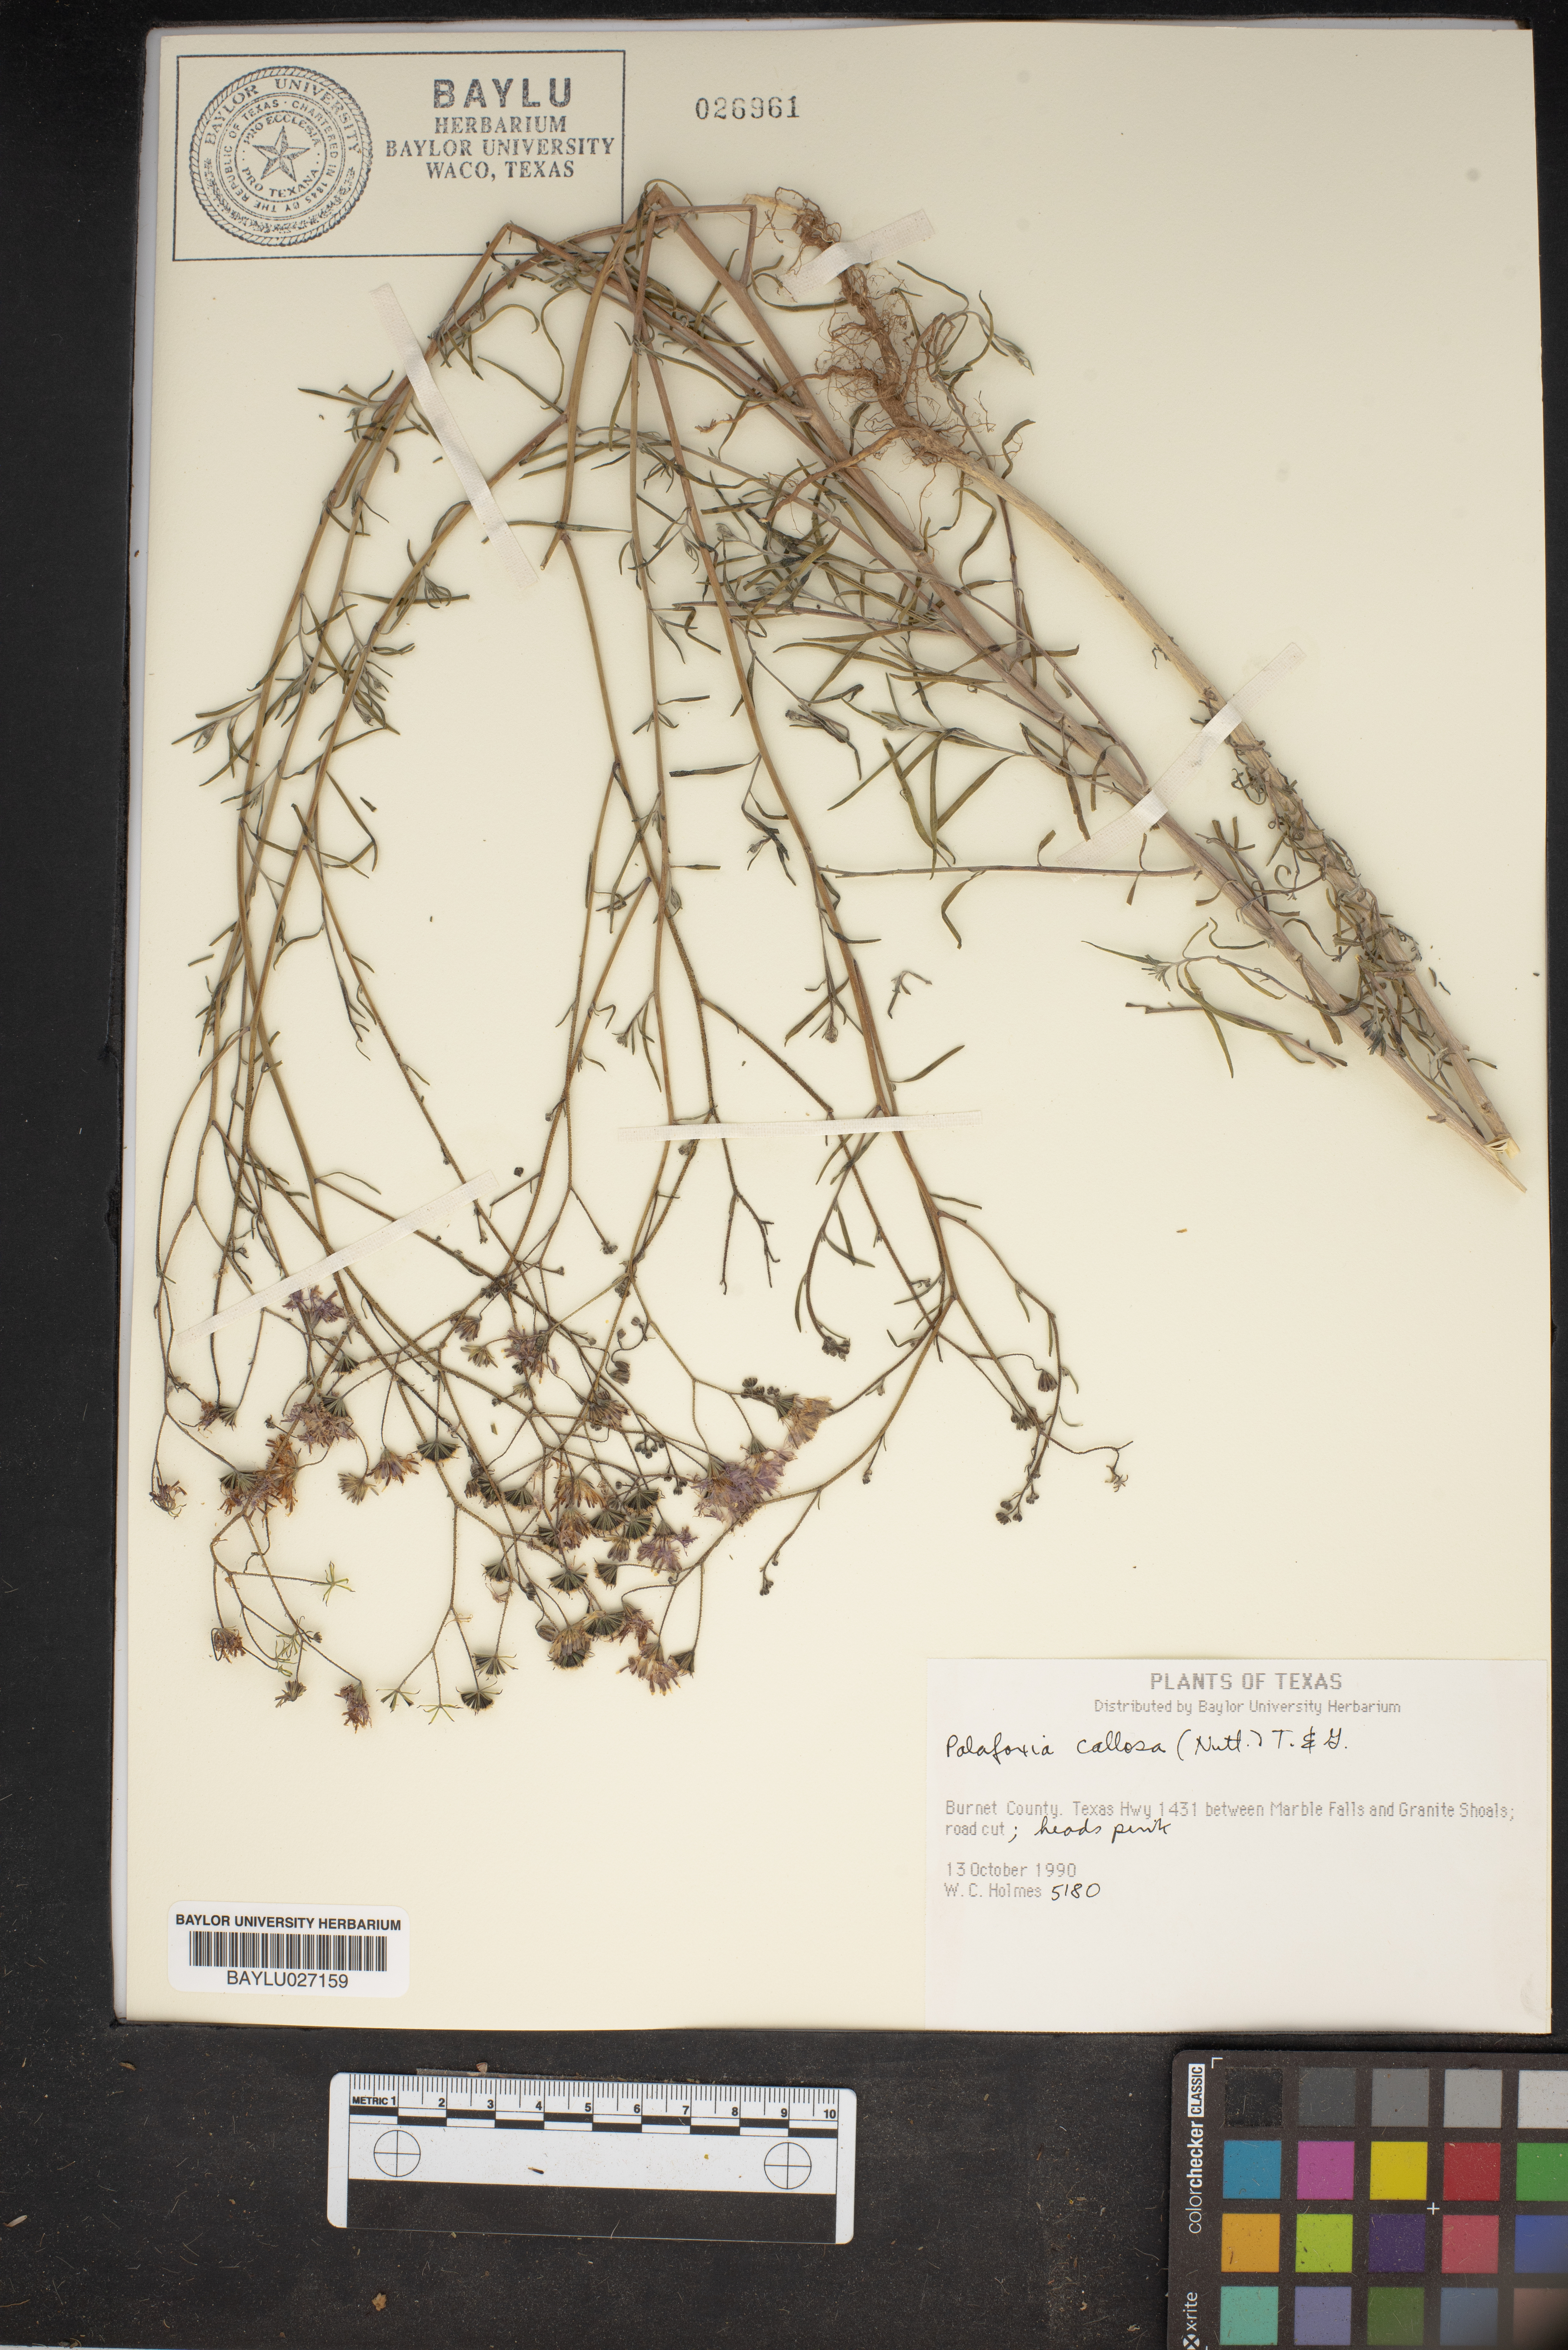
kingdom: Plantae
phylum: Tracheophyta
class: Magnoliopsida
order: Asterales
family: Asteraceae
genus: Palafoxia
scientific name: Palafoxia callosa
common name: Small palafox
